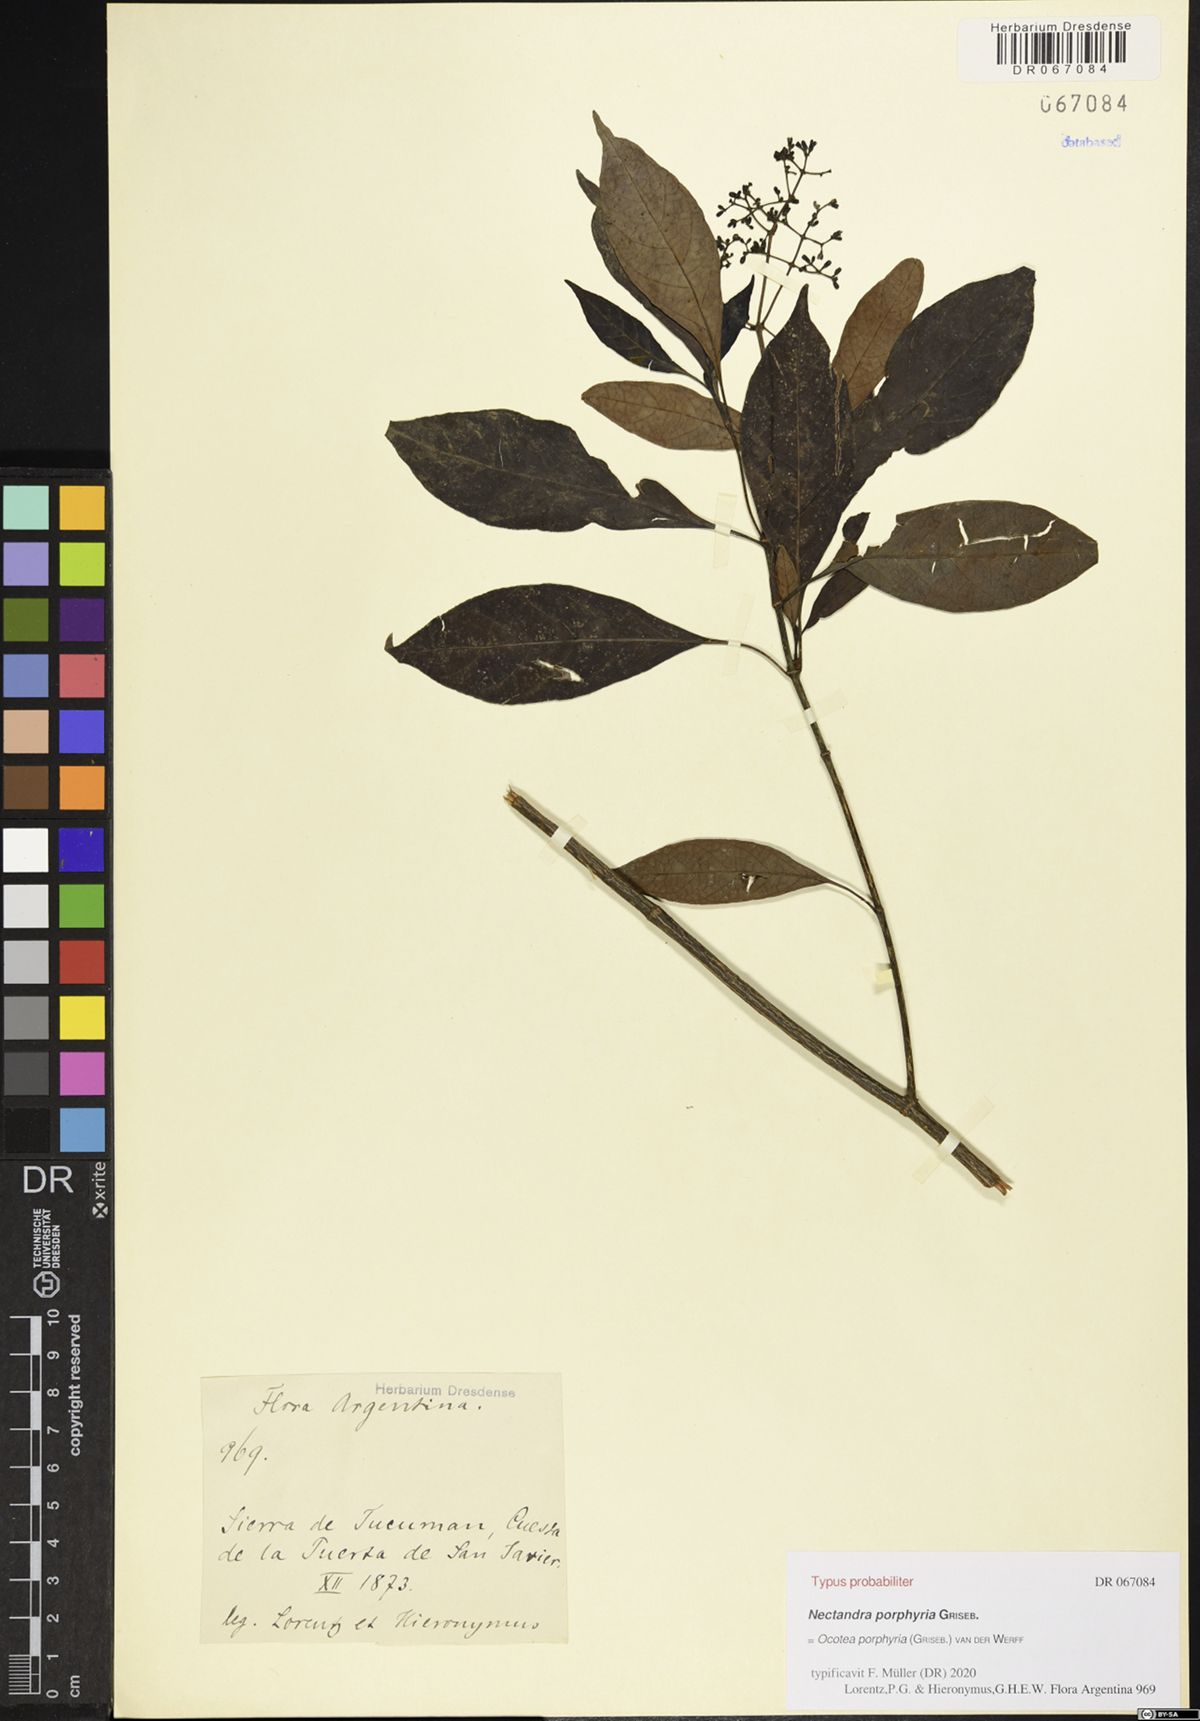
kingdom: Plantae
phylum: Tracheophyta
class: Magnoliopsida
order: Laurales
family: Lauraceae
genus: Ocotea
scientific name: Ocotea porphyria
